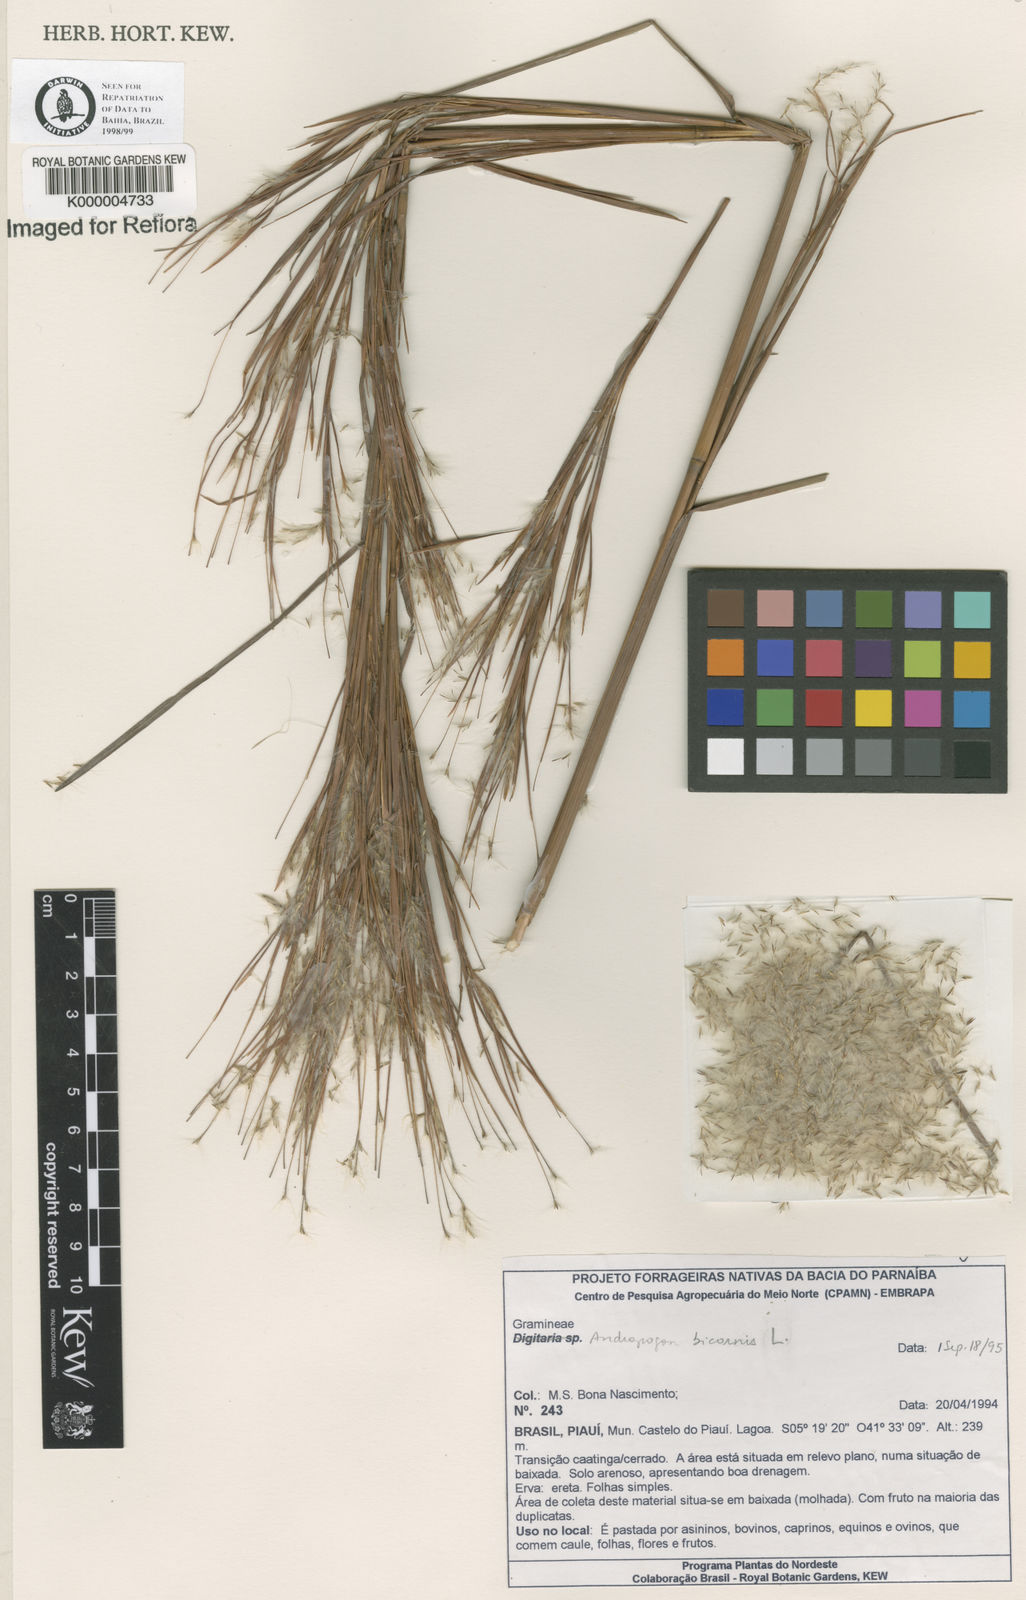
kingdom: Plantae
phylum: Tracheophyta
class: Liliopsida
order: Poales
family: Poaceae
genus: Andropogon
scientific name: Andropogon bicornis
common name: West indian foxtail grass
